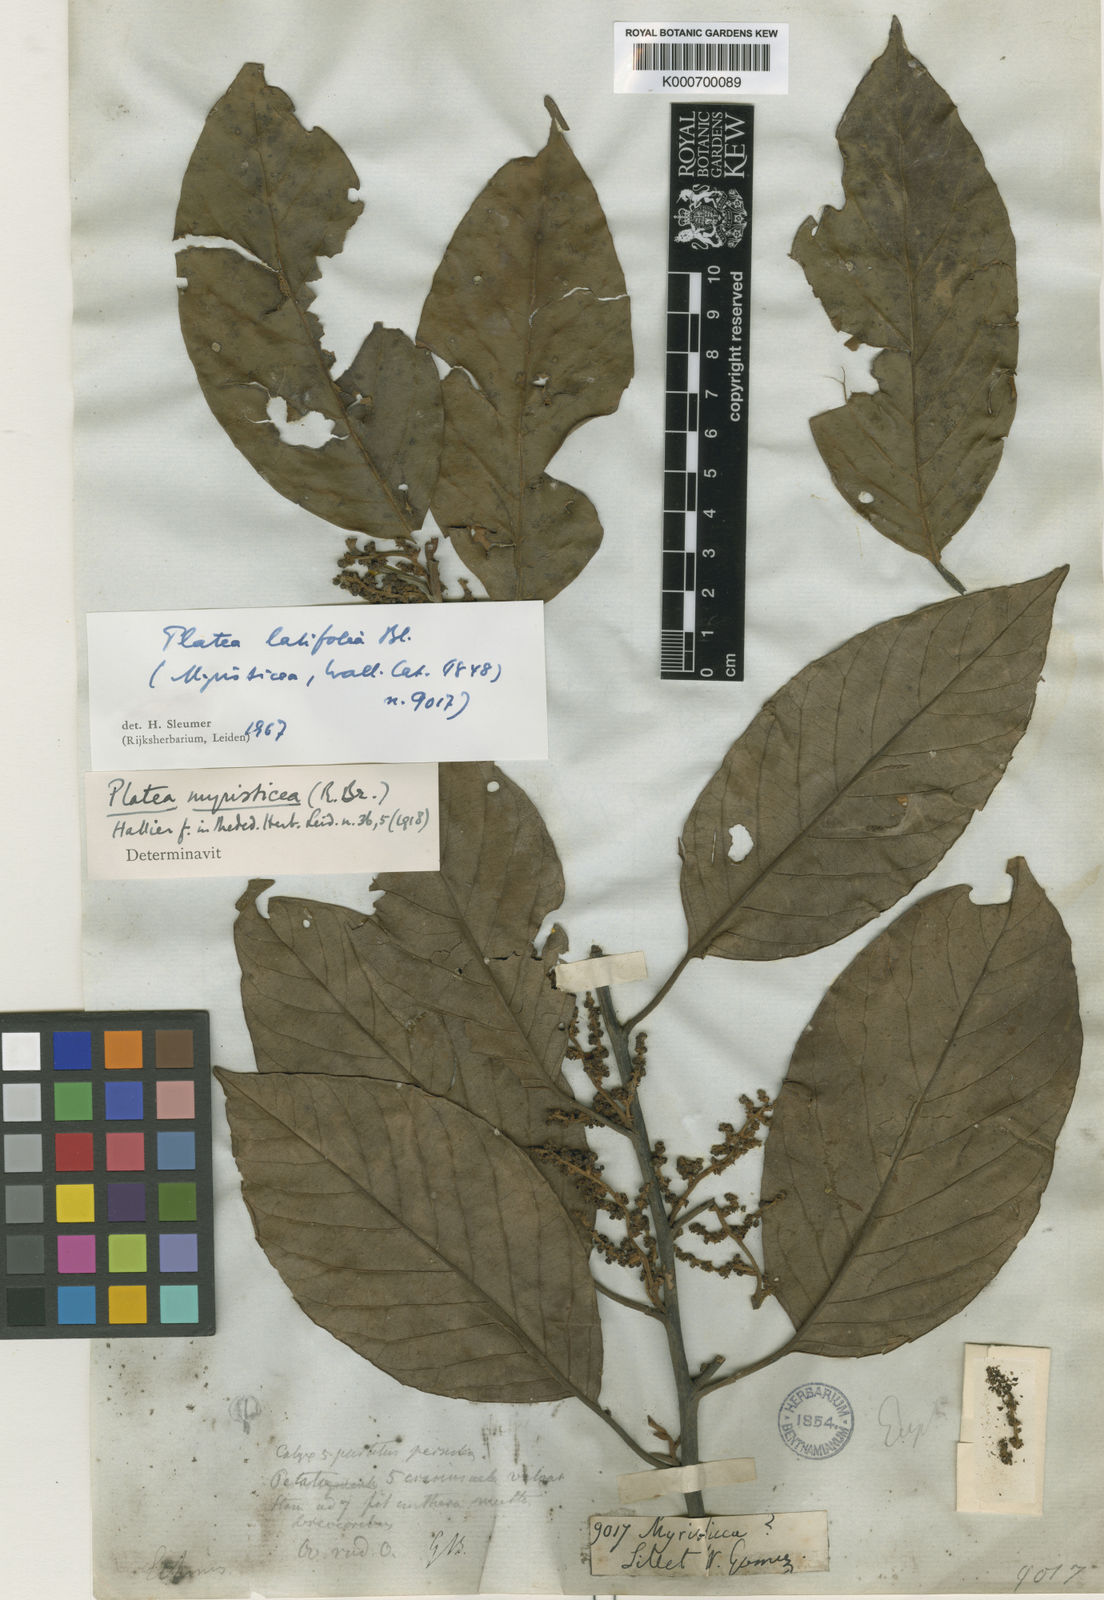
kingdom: Plantae
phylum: Tracheophyta
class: Magnoliopsida
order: Metteniusales
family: Metteniusaceae
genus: Platea
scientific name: Platea latifolia
